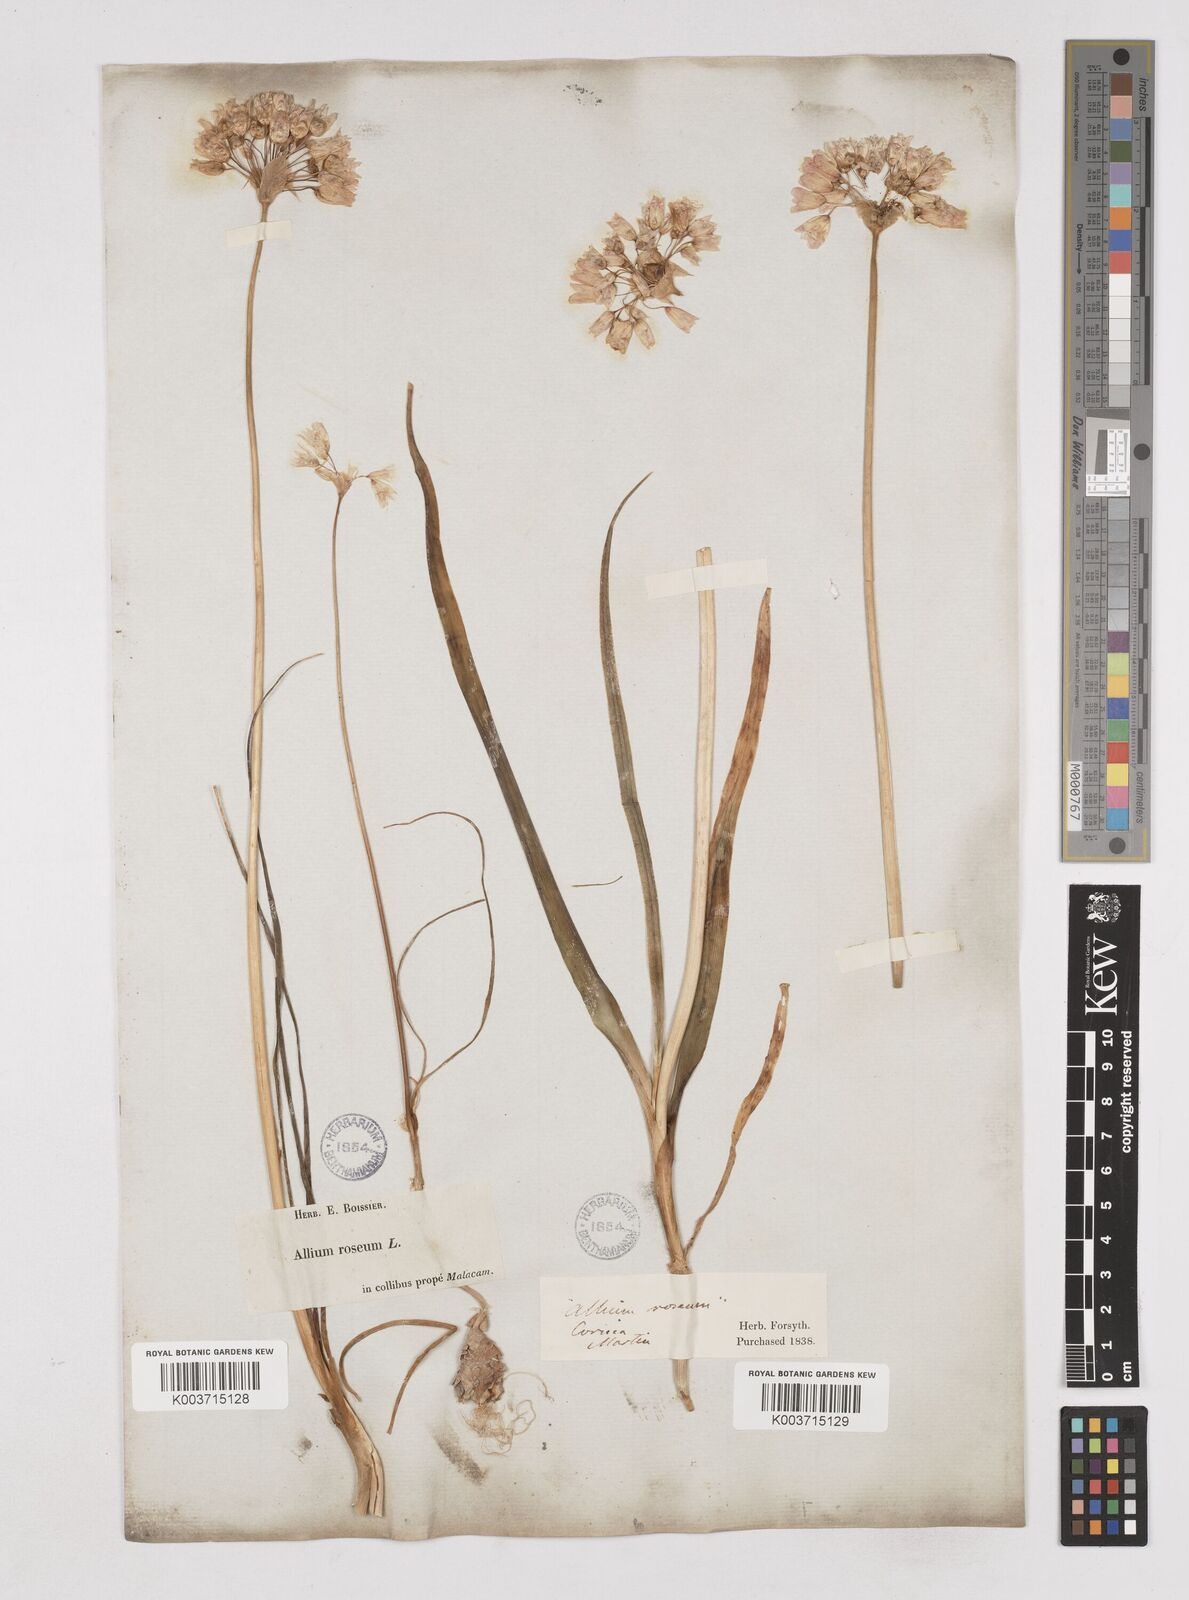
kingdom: Plantae
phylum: Tracheophyta
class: Liliopsida
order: Asparagales
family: Amaryllidaceae
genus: Allium
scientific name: Allium roseum
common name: Rosy garlic
